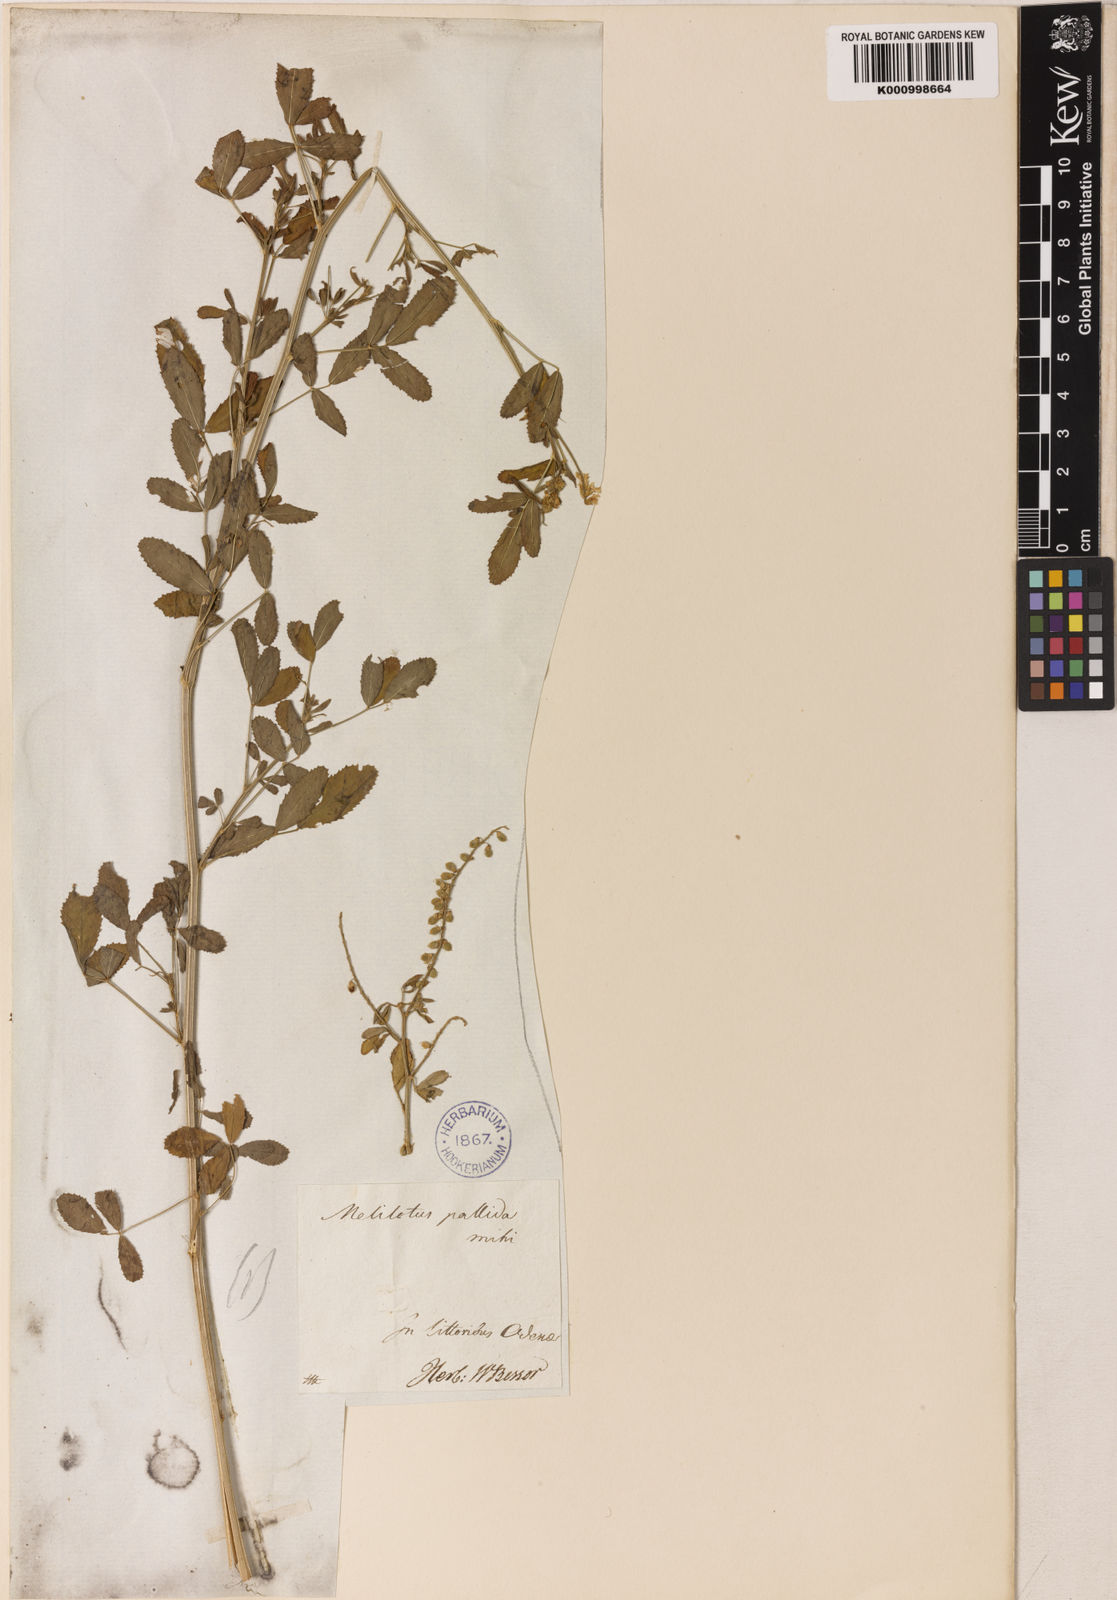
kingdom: Plantae
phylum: Tracheophyta
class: Magnoliopsida
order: Fabales
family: Fabaceae
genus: Melilotus
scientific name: Melilotus
